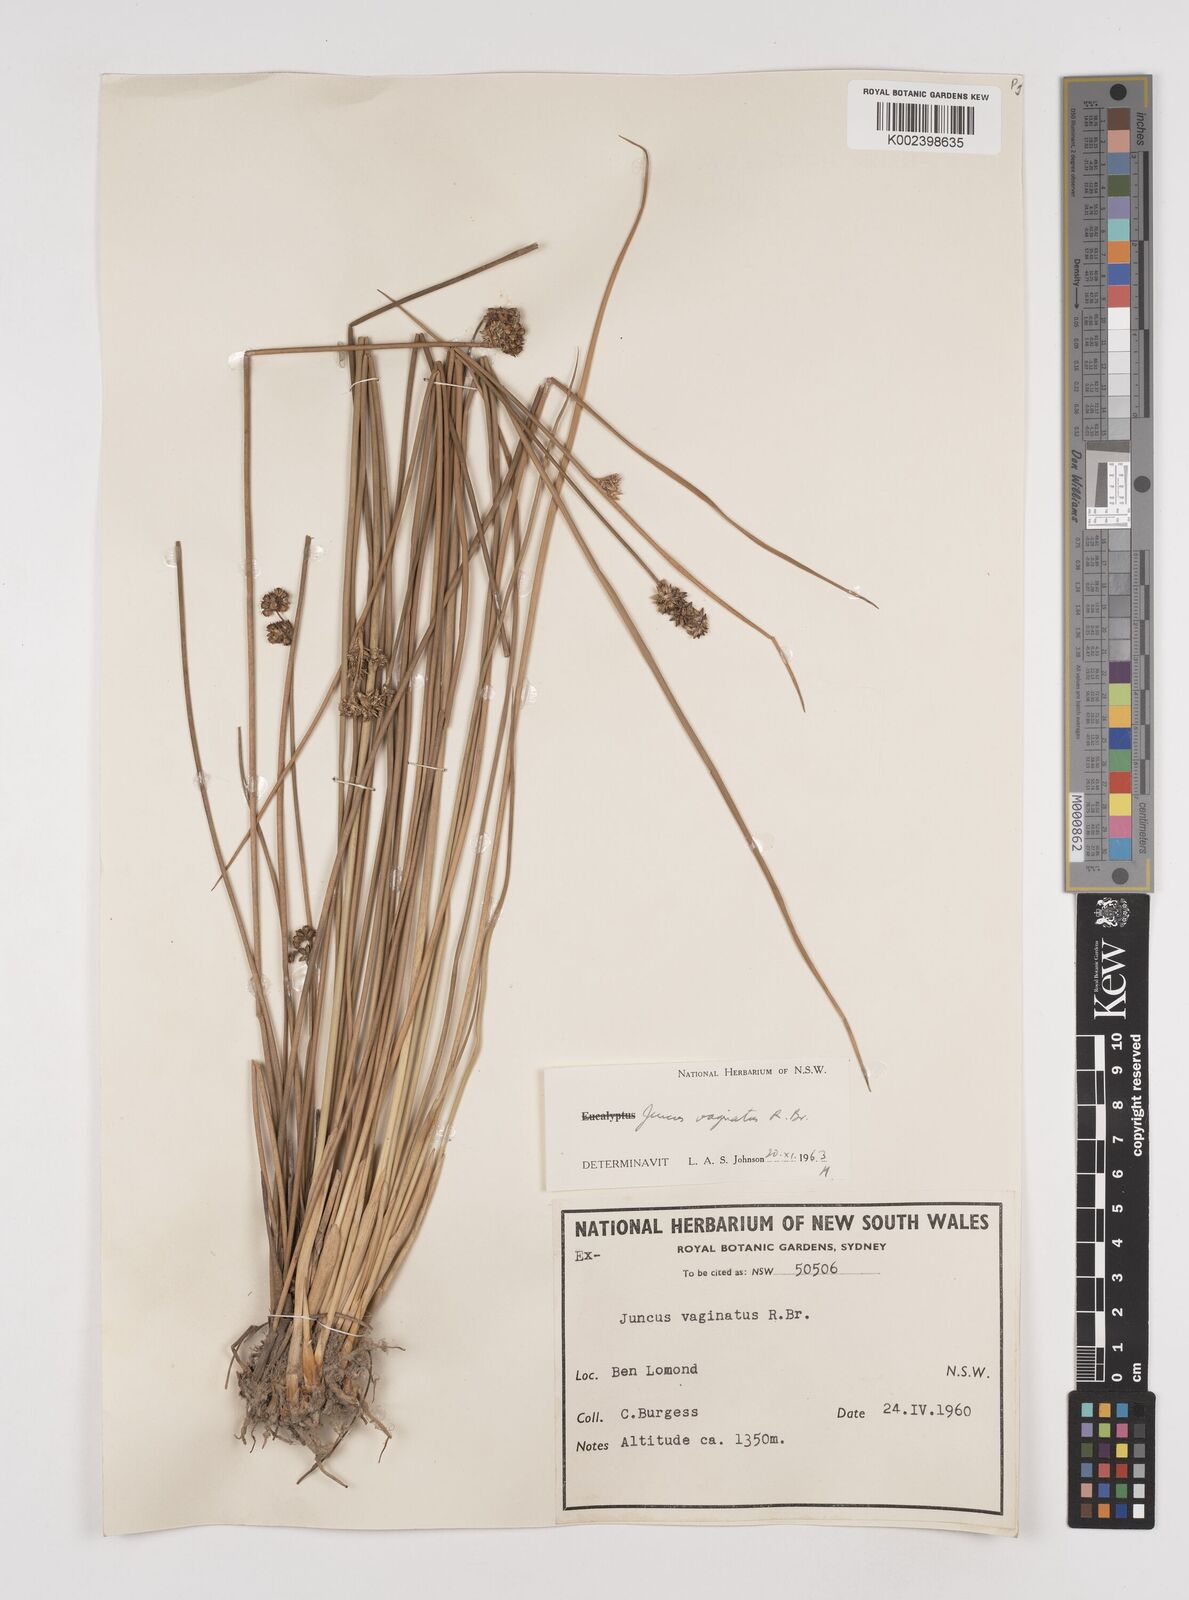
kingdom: Plantae
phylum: Tracheophyta
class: Liliopsida
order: Poales
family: Juncaceae
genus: Juncus
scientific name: Juncus vaginatus
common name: Clustered rush
